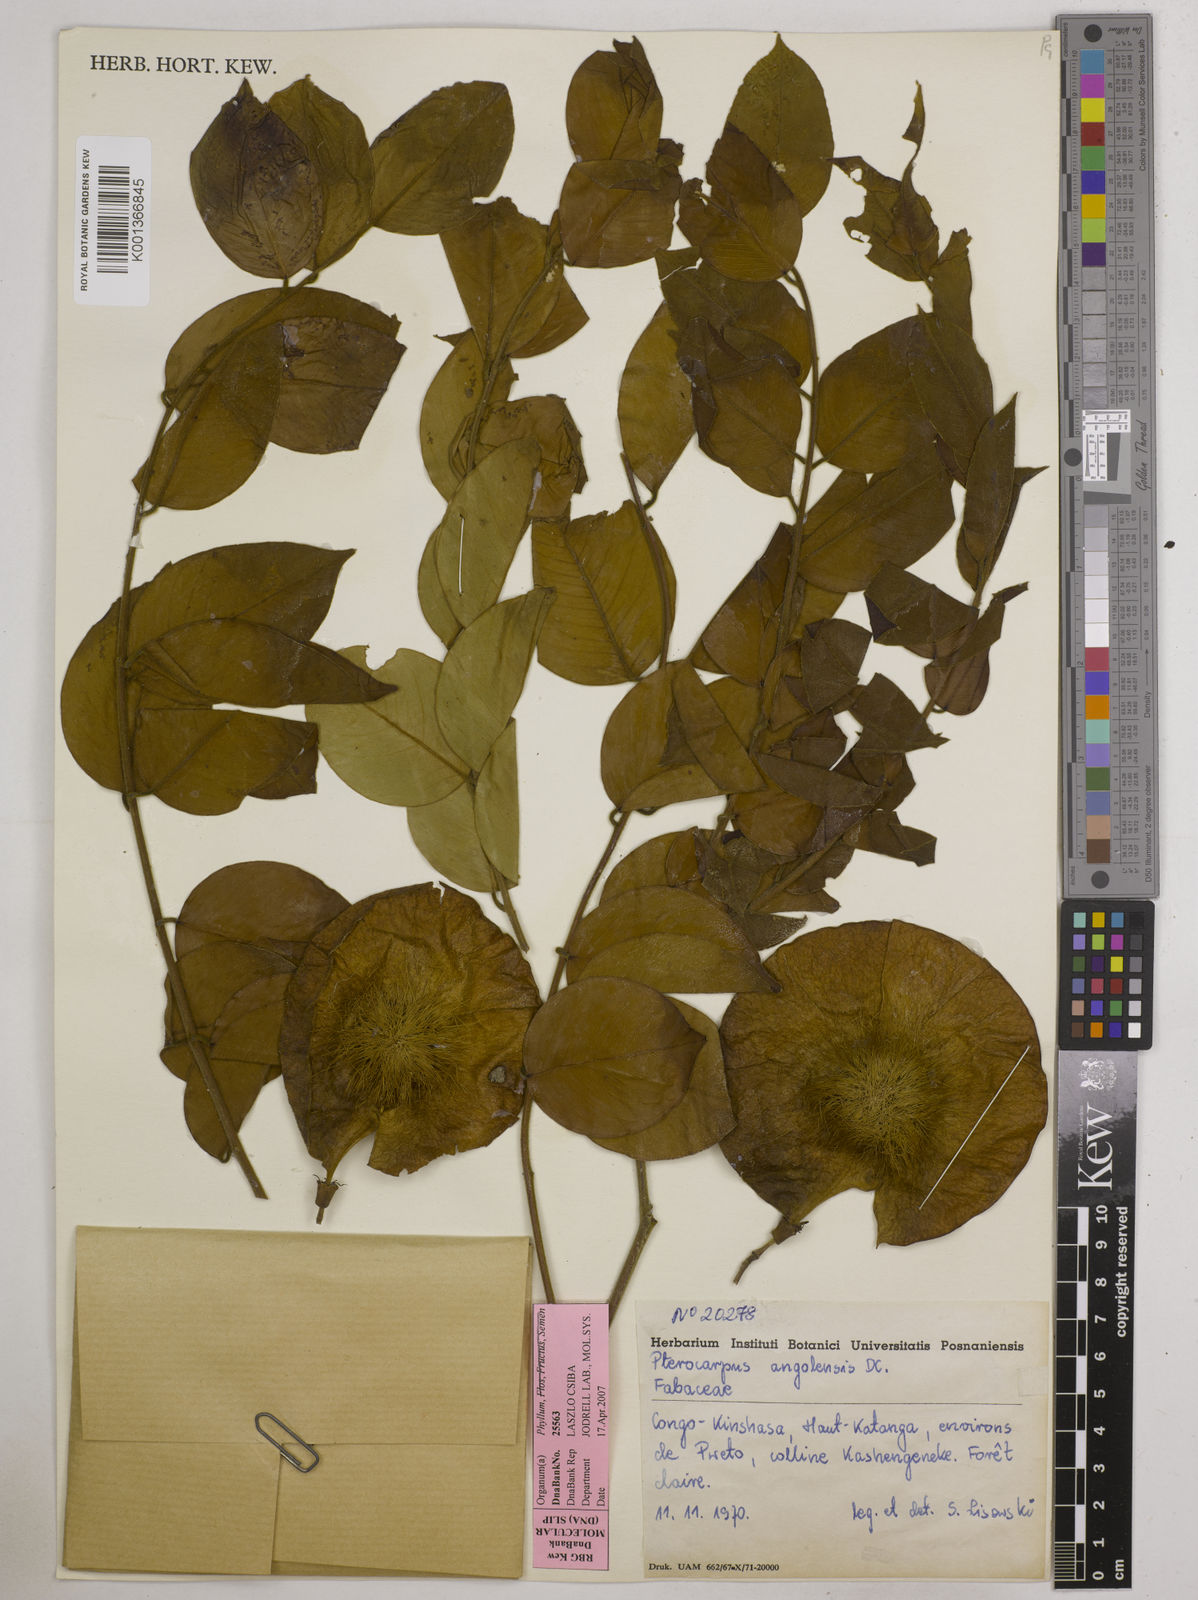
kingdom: Plantae
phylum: Tracheophyta
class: Magnoliopsida
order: Fabales
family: Fabaceae
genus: Pterocarpus
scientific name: Pterocarpus angolensis
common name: Bloodwood tree
